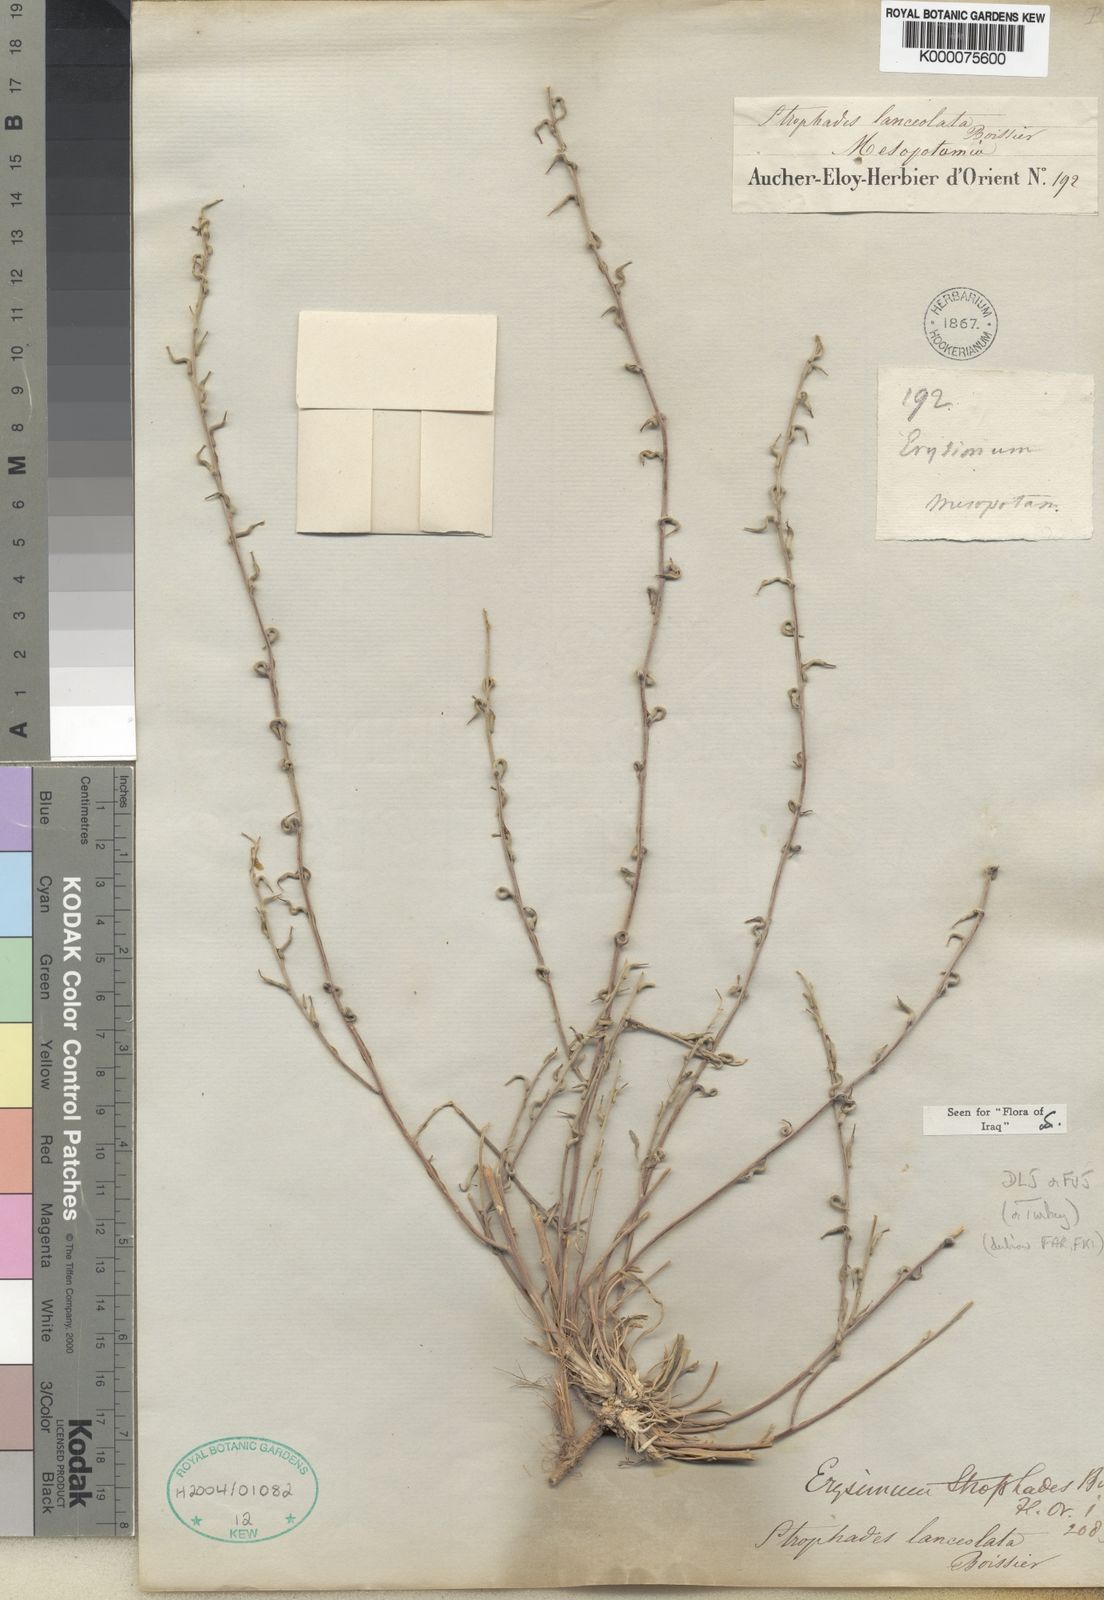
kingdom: Plantae
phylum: Tracheophyta
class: Magnoliopsida
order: Brassicales
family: Brassicaceae
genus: Erysimum
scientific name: Erysimum oleifolium
